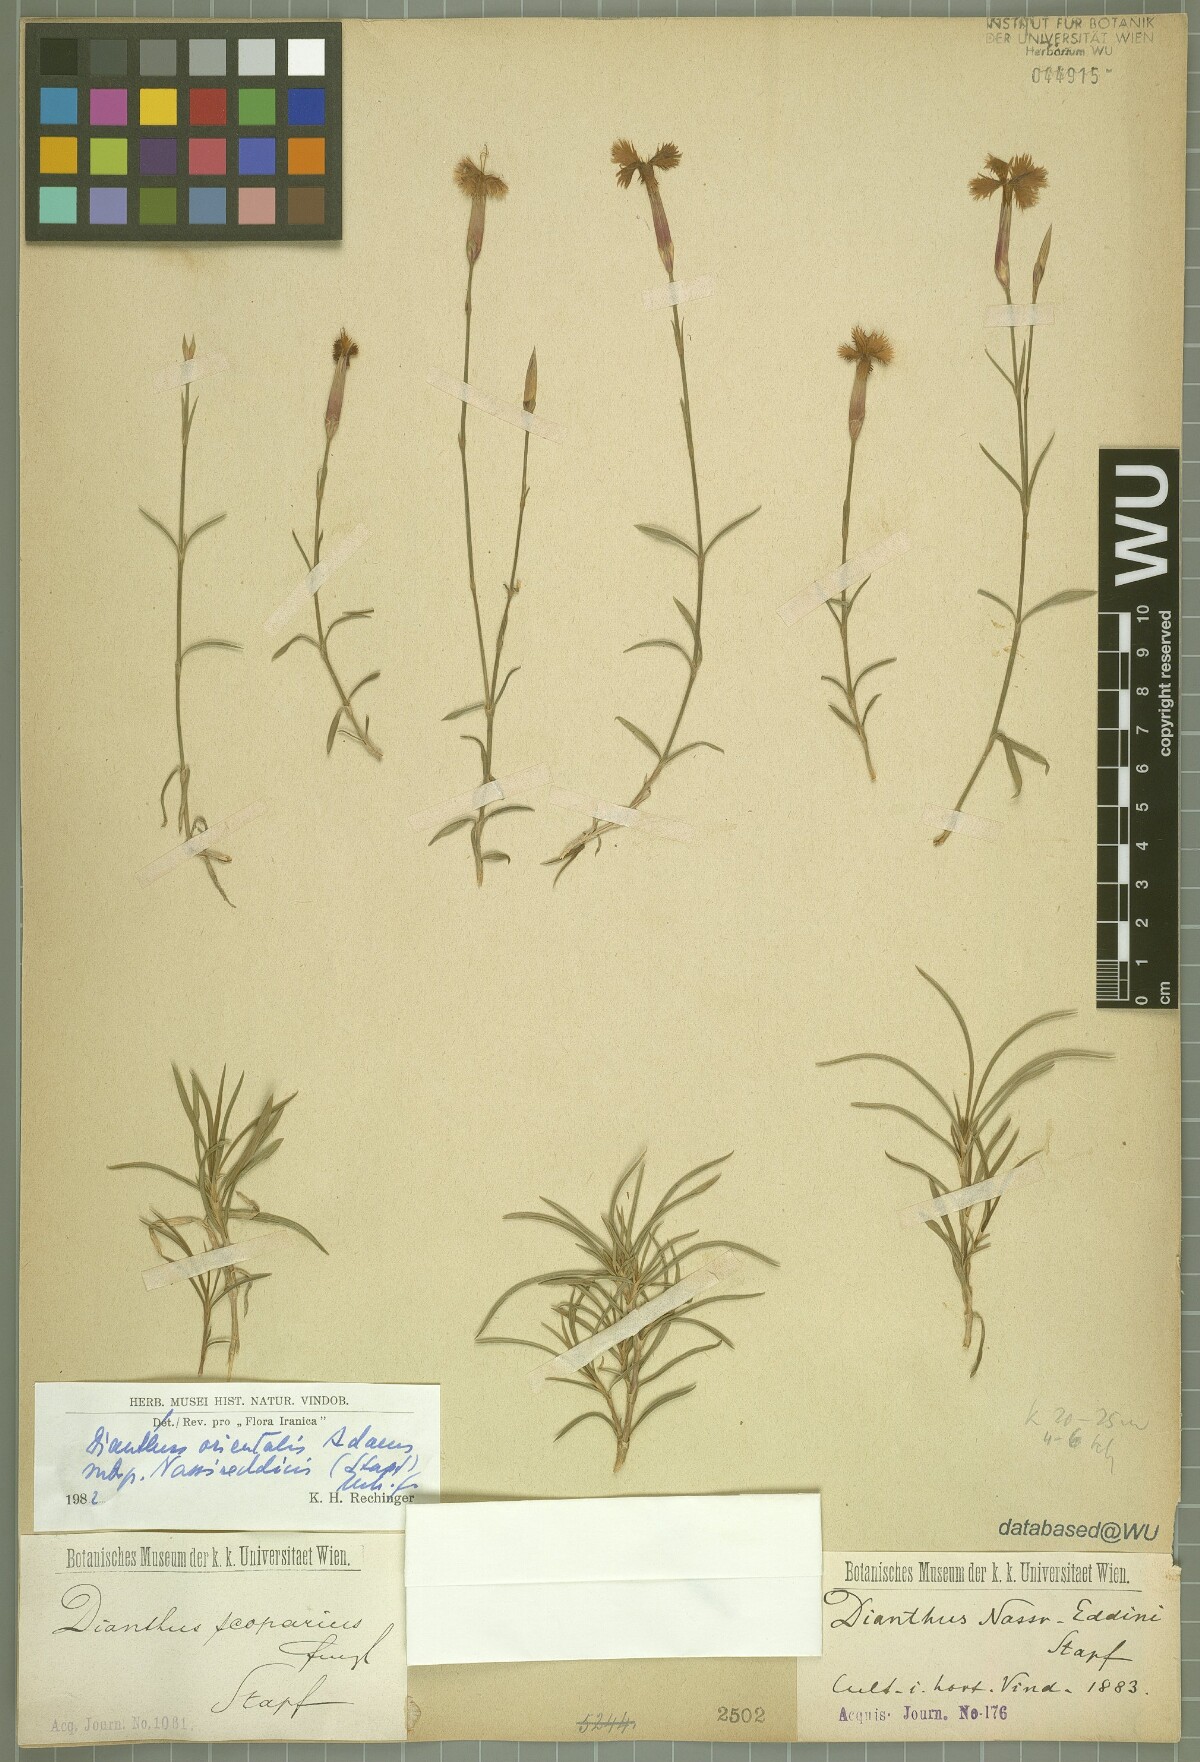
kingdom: Plantae
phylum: Tracheophyta
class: Magnoliopsida
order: Caryophyllales
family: Caryophyllaceae
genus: Dianthus
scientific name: Dianthus orientalis
